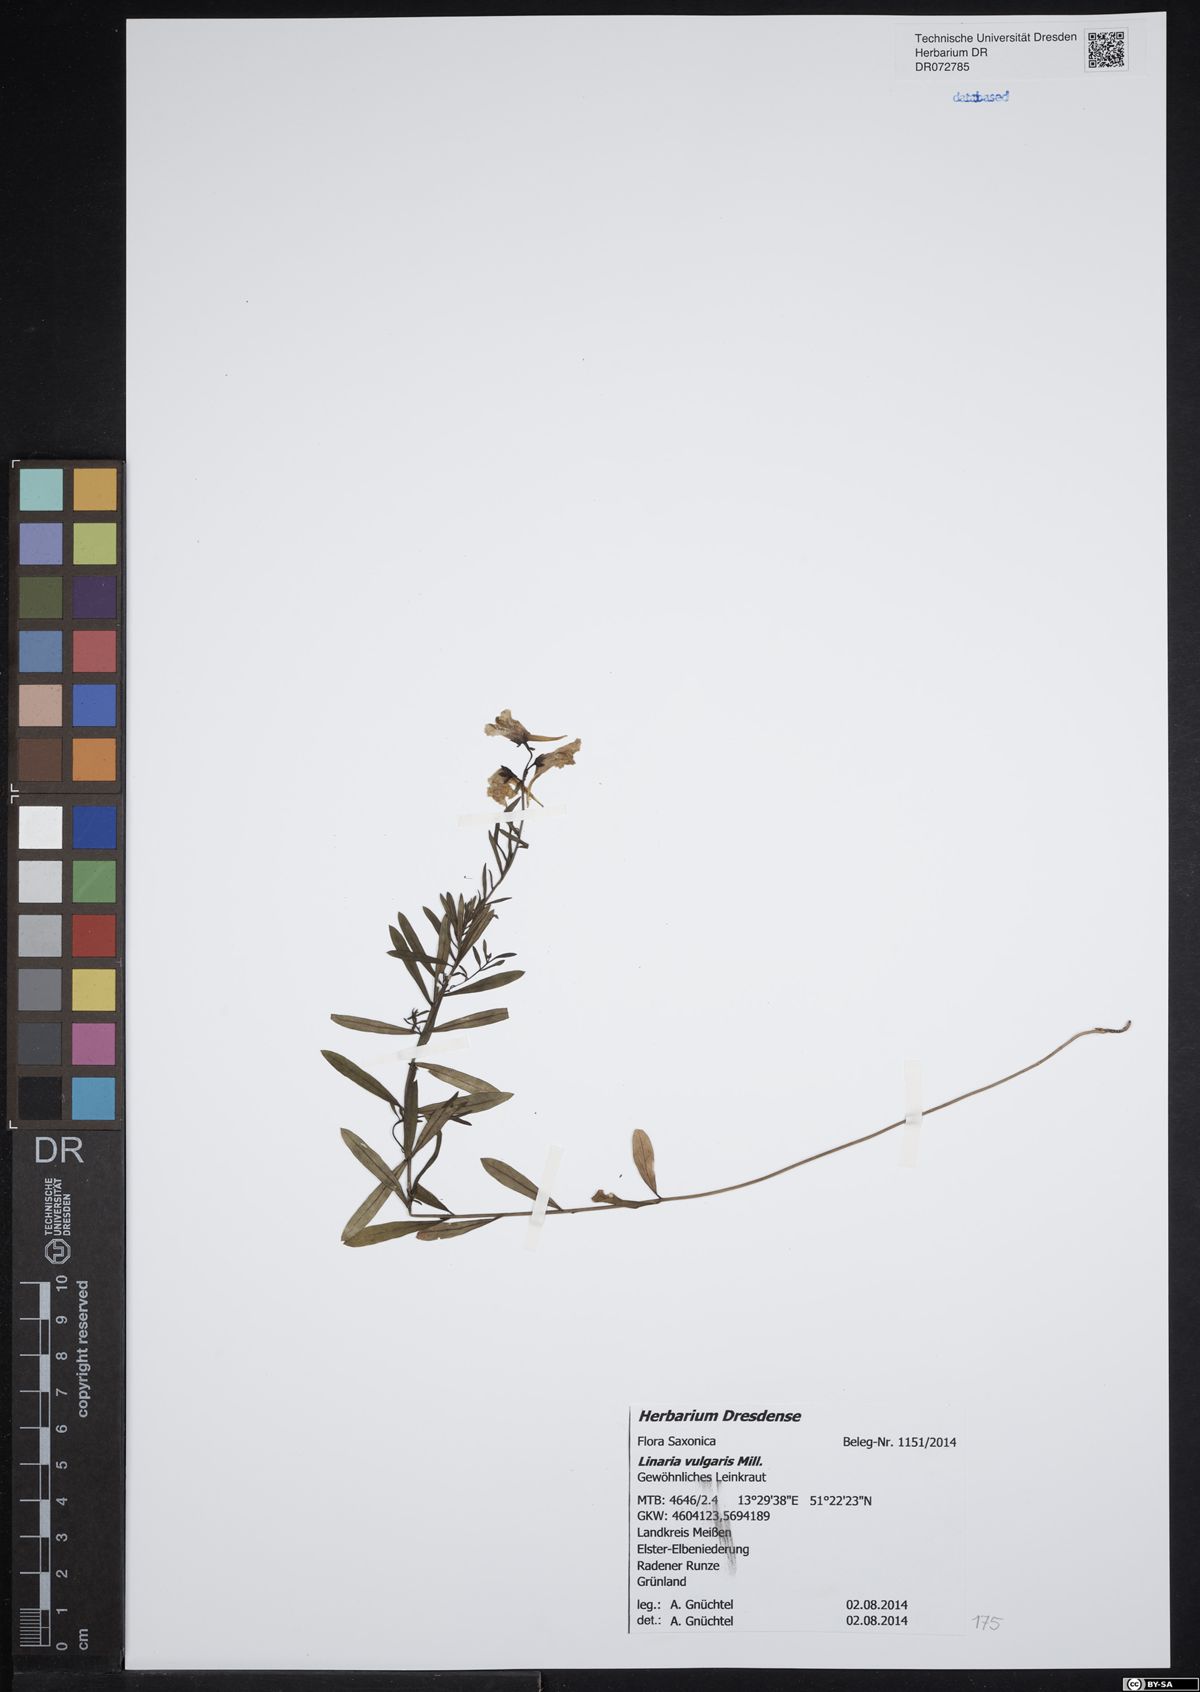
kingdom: Plantae
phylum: Tracheophyta
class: Magnoliopsida
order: Lamiales
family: Plantaginaceae
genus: Linaria
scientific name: Linaria vulgaris
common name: Butter and eggs
